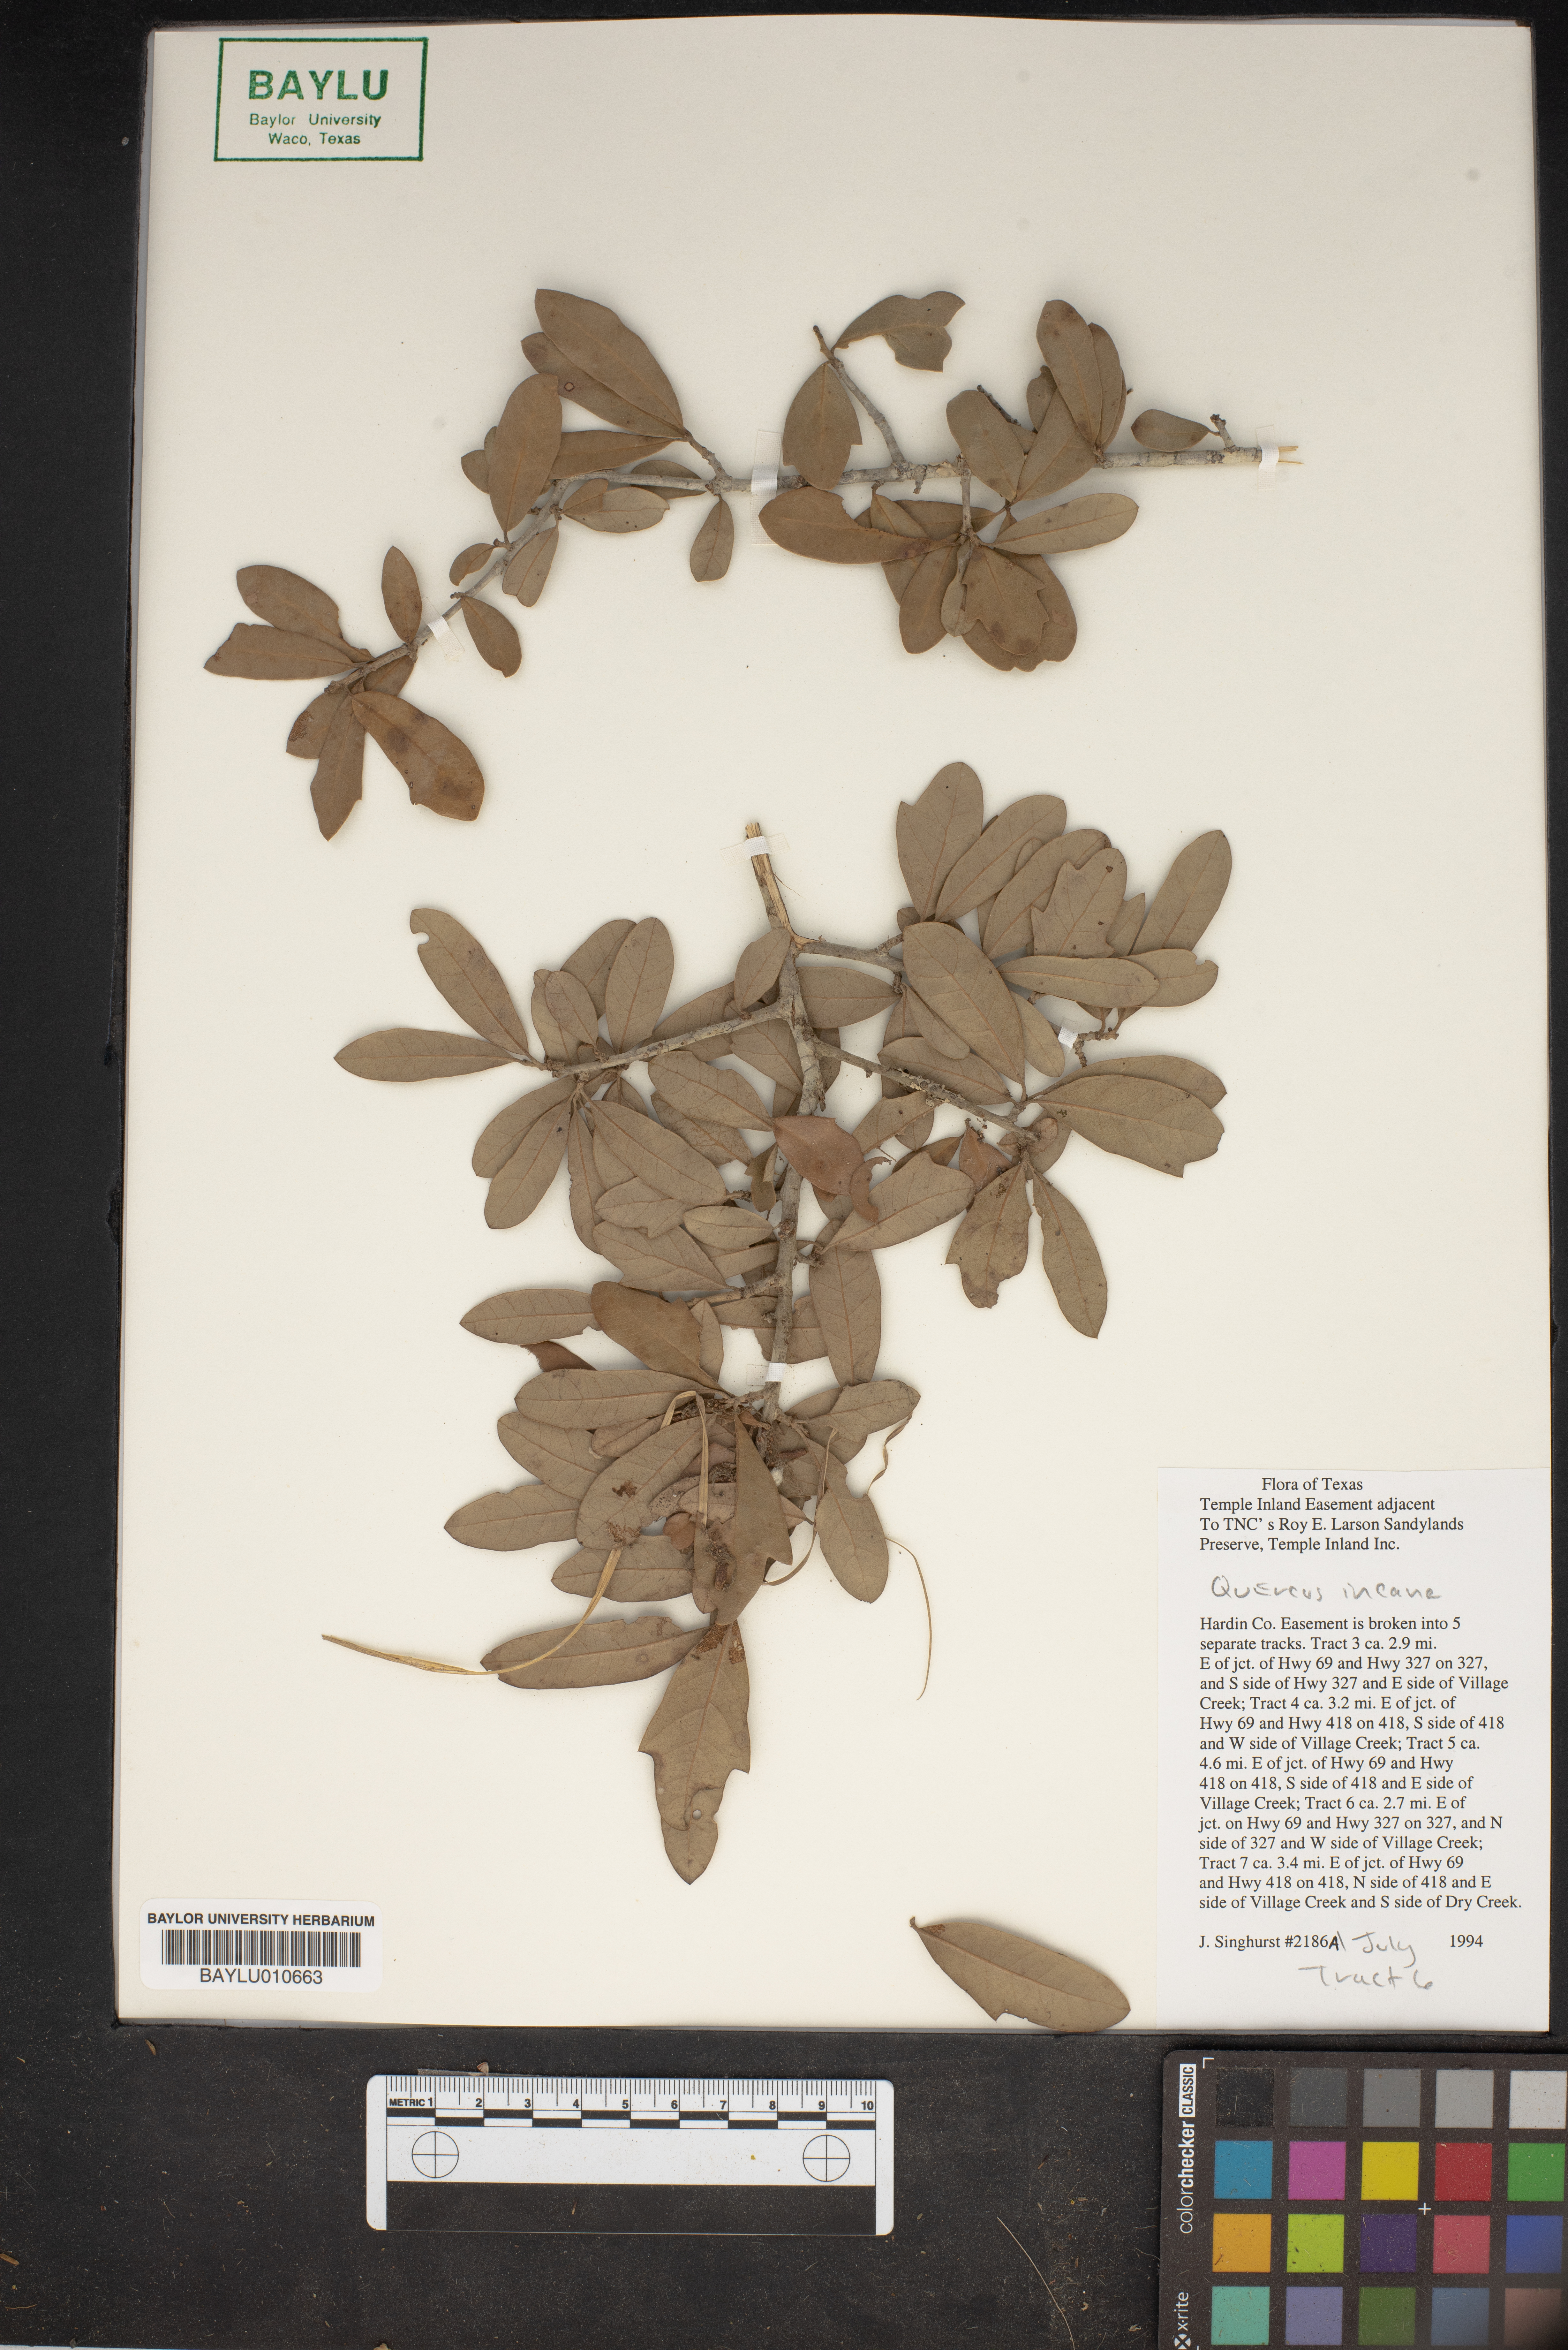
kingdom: Plantae
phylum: Tracheophyta
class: Magnoliopsida
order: Fagales
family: Fagaceae
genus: Quercus
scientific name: Quercus incana
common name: Bluejack oak
